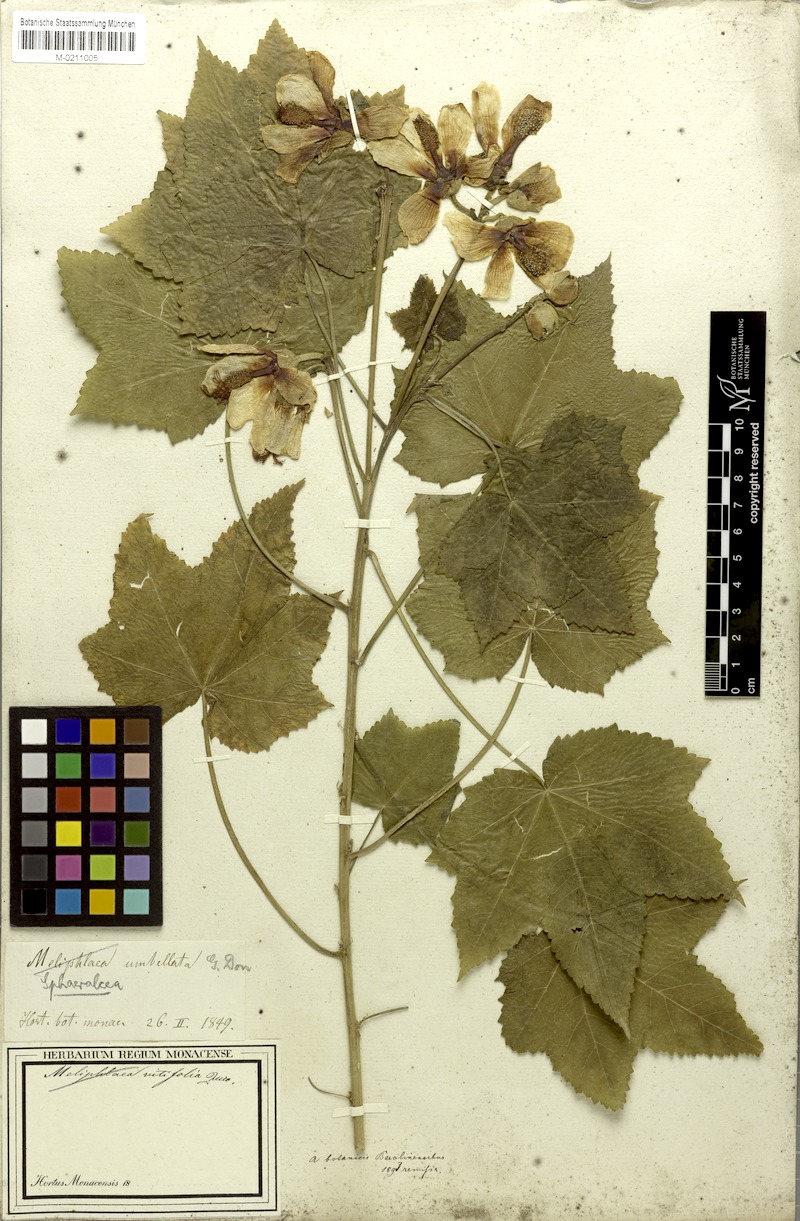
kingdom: Plantae
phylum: Tracheophyta
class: Magnoliopsida
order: Malvales
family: Malvaceae
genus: Phymosia
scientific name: Phymosia rosea
